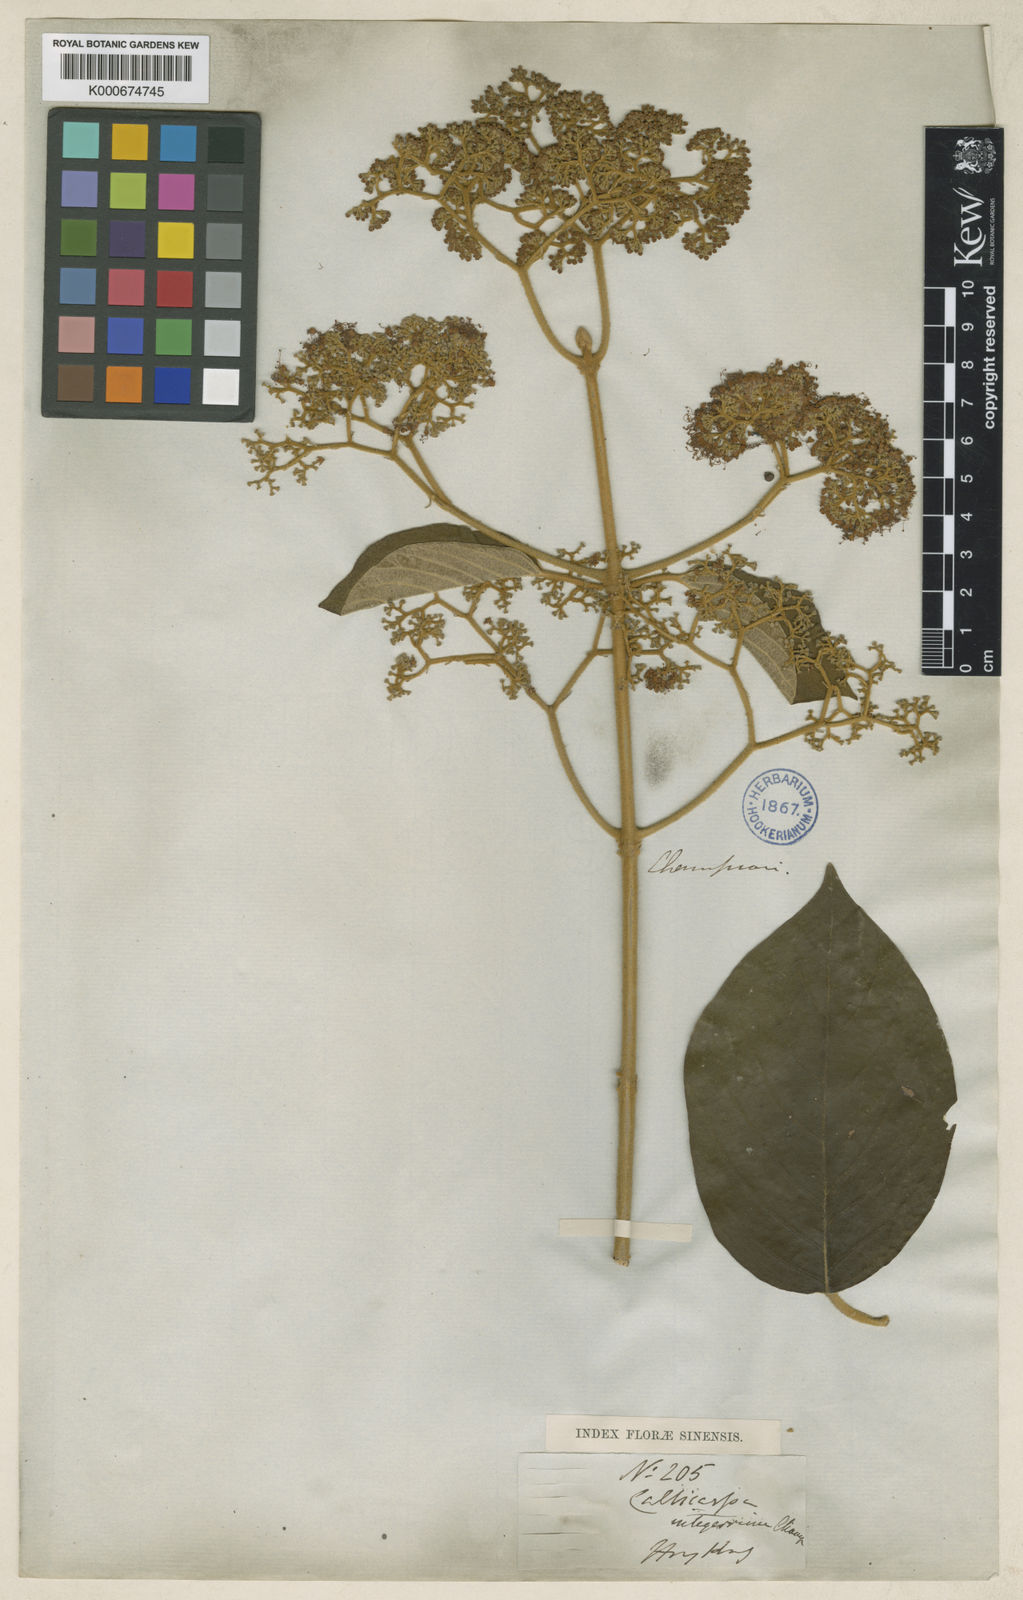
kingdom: Plantae
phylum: Tracheophyta
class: Magnoliopsida
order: Lamiales
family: Lamiaceae
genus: Callicarpa
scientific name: Callicarpa integerrima
